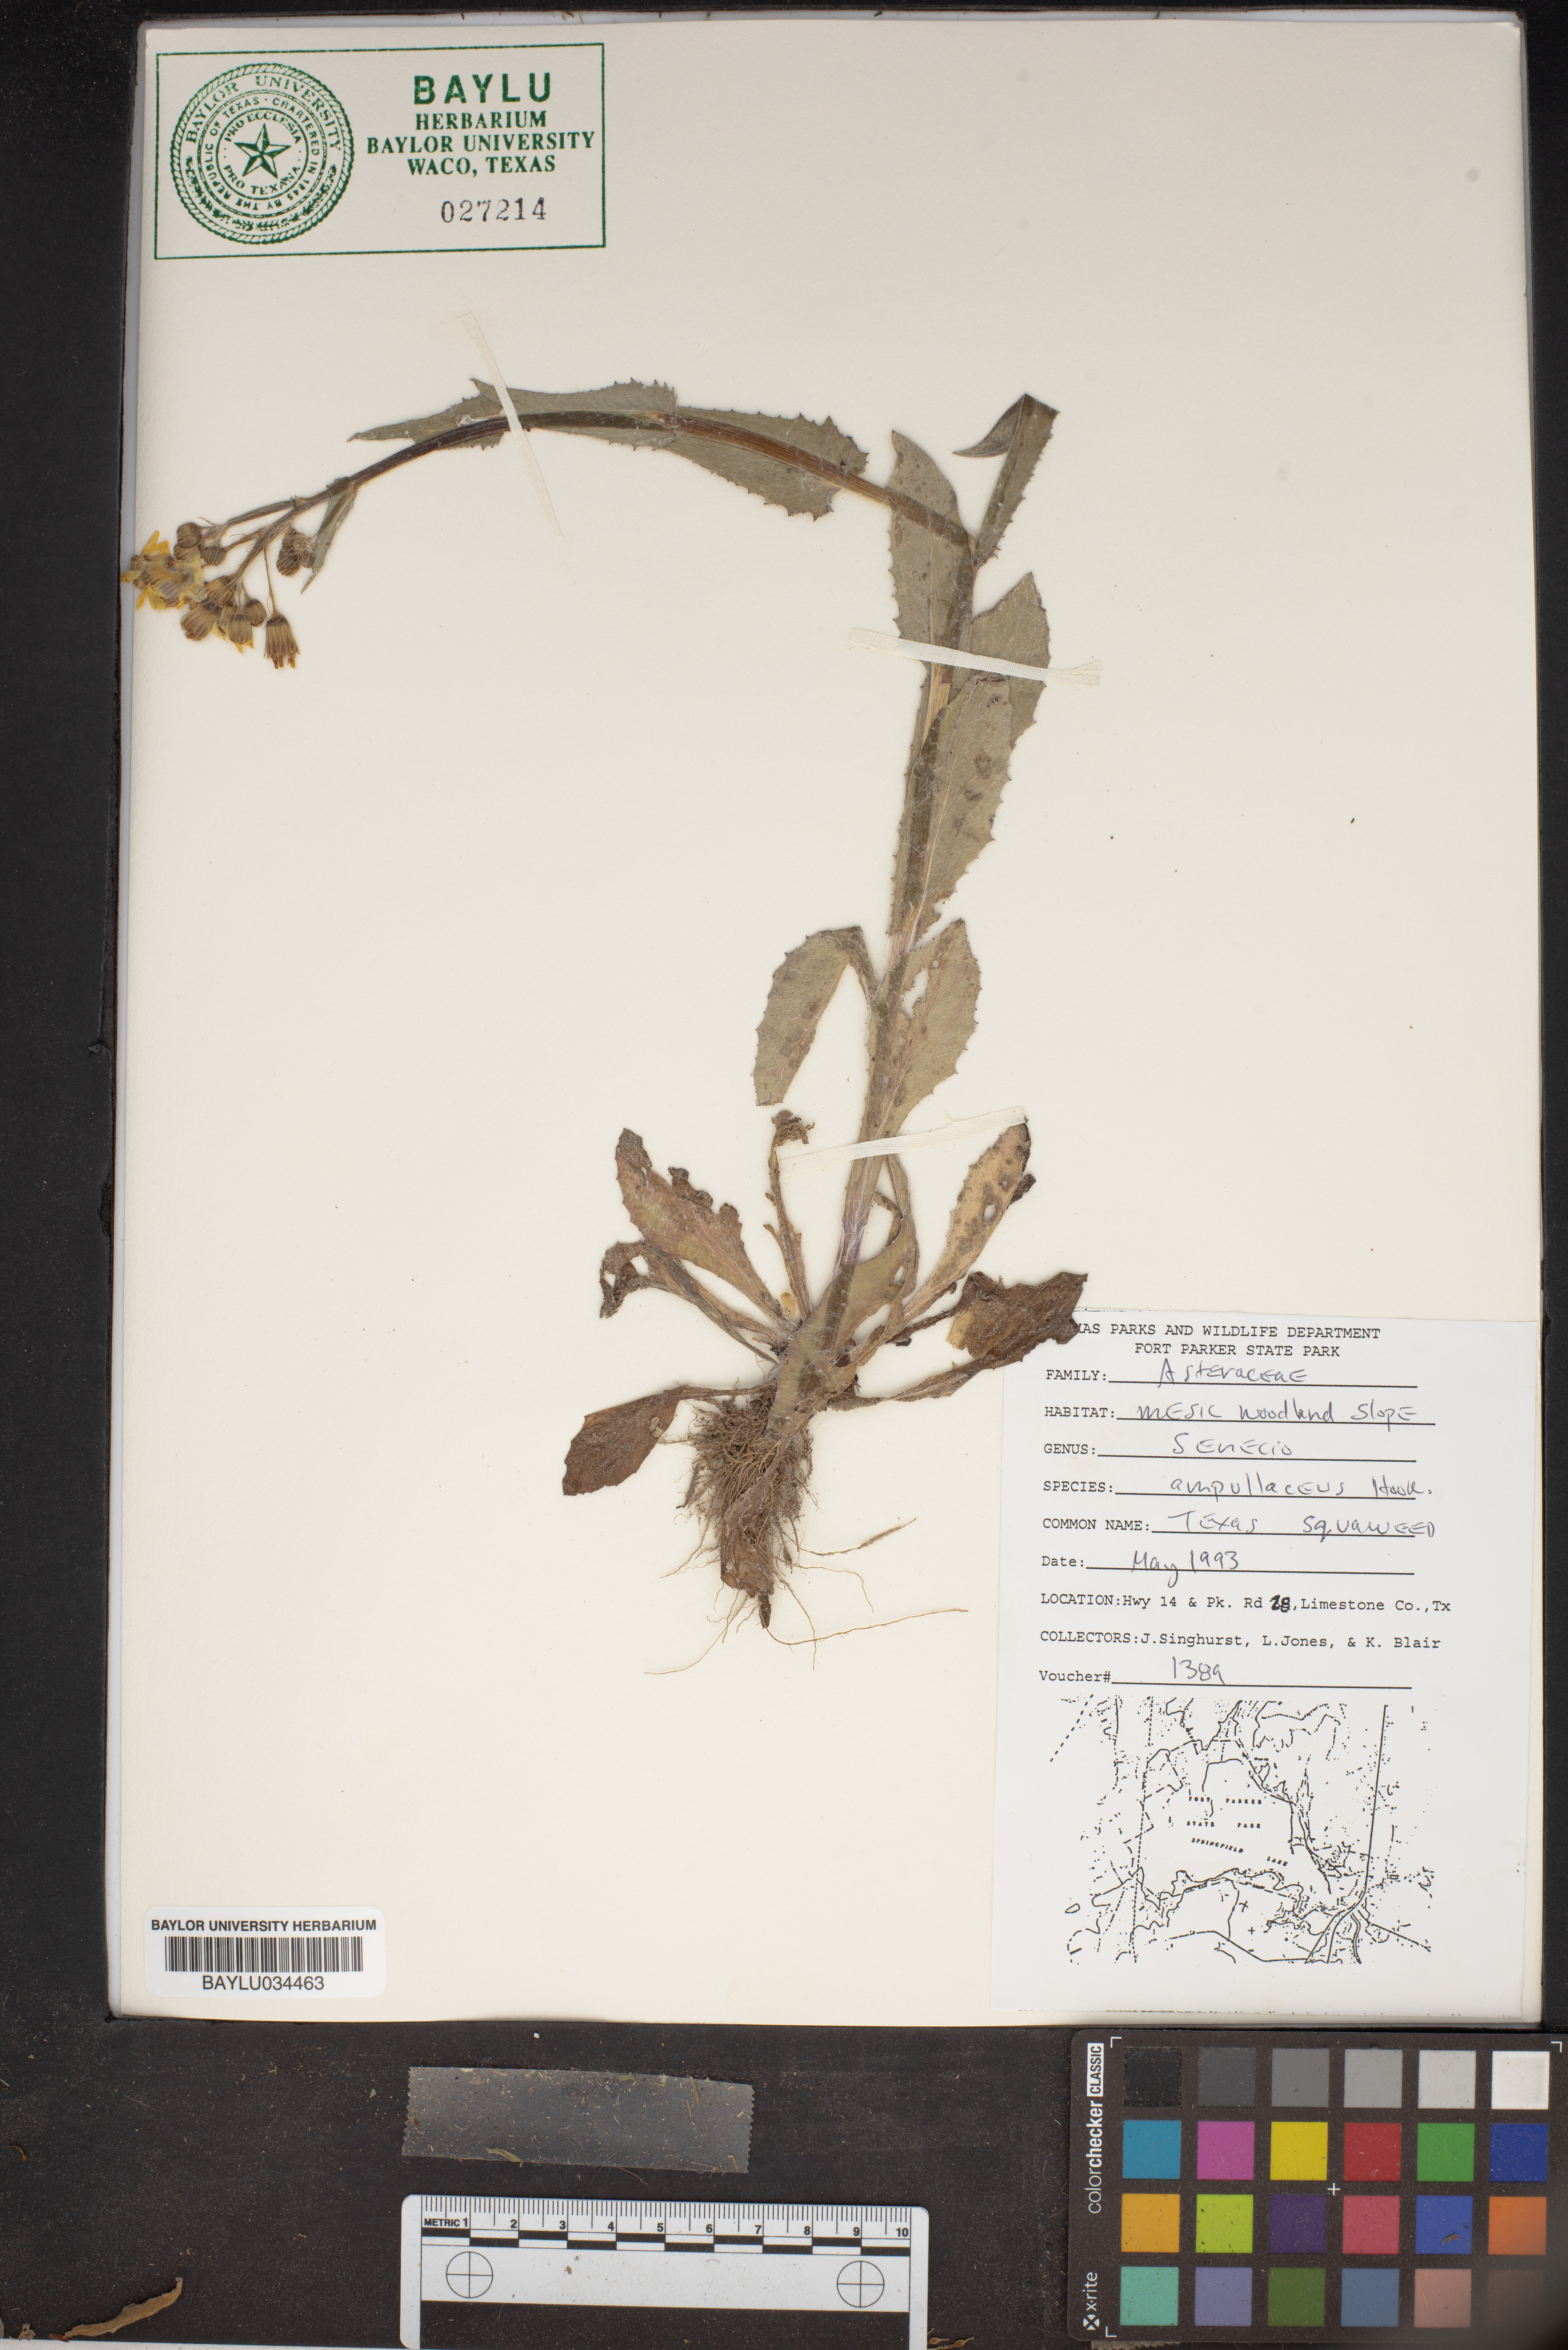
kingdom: Plantae
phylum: Tracheophyta
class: Magnoliopsida
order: Asterales
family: Asteraceae
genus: Senecio
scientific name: Senecio ampullaceus
